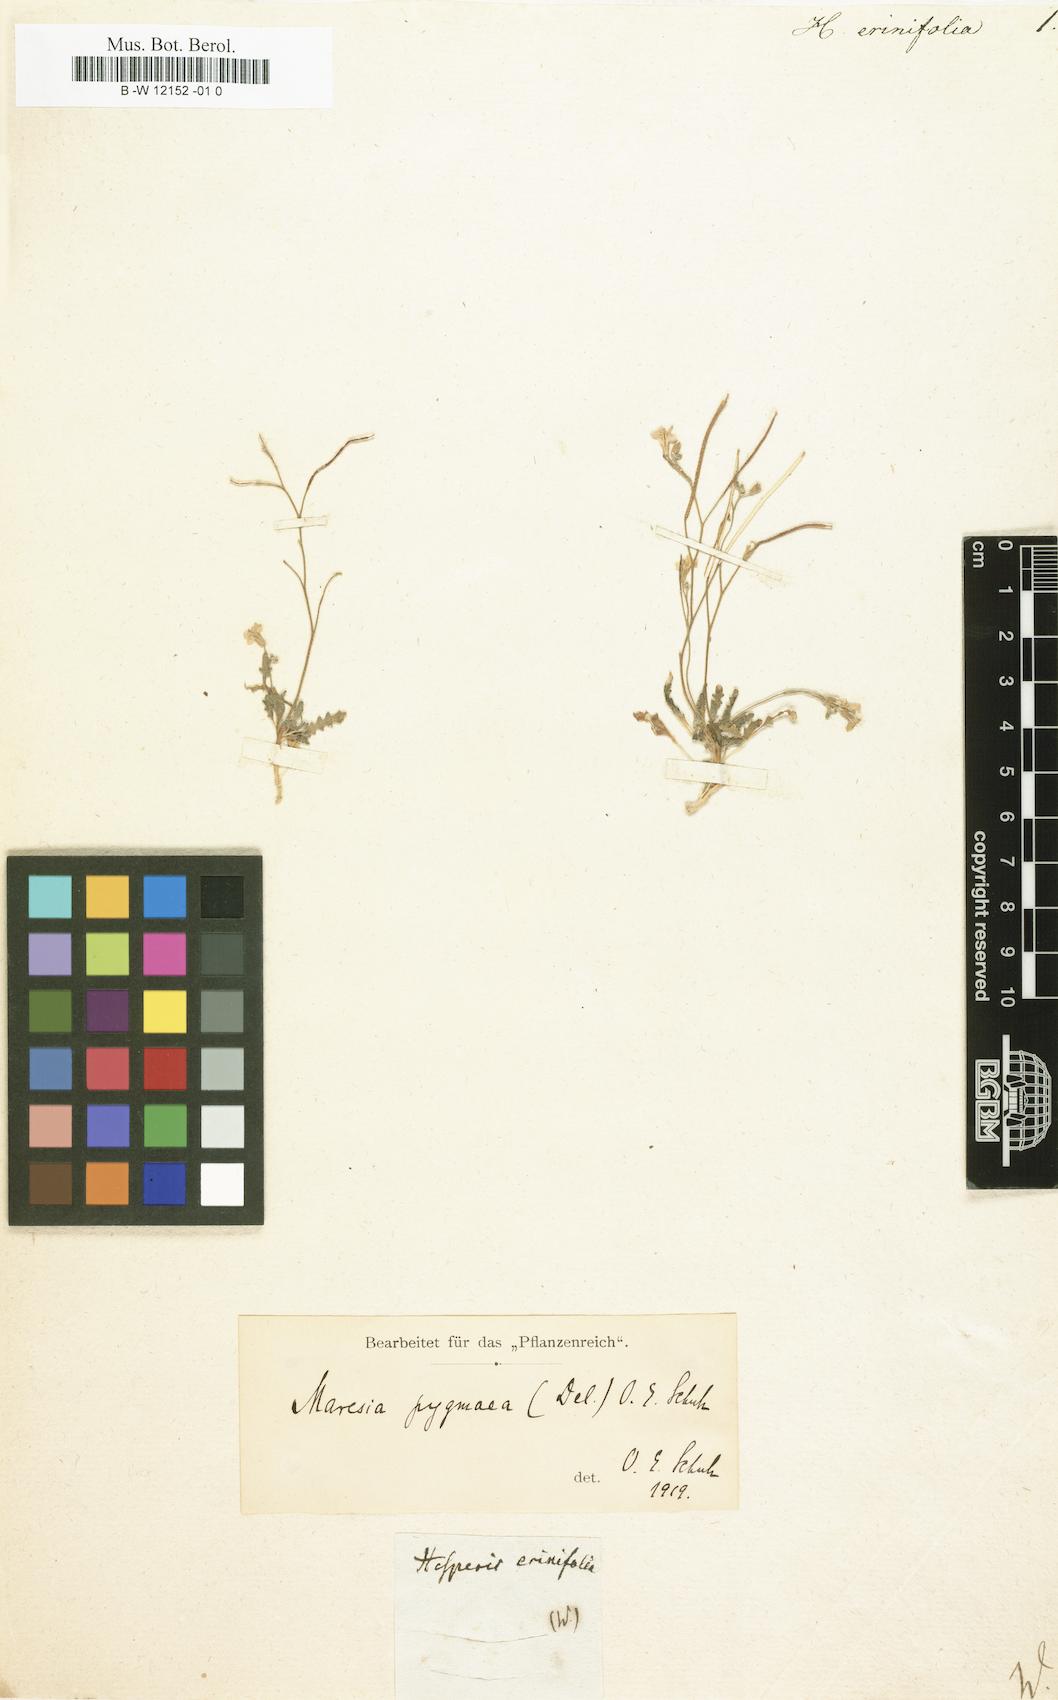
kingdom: Plantae
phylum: Tracheophyta
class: Magnoliopsida
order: Brassicales
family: Brassicaceae
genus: Hesperis
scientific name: Hesperis erinifolia
